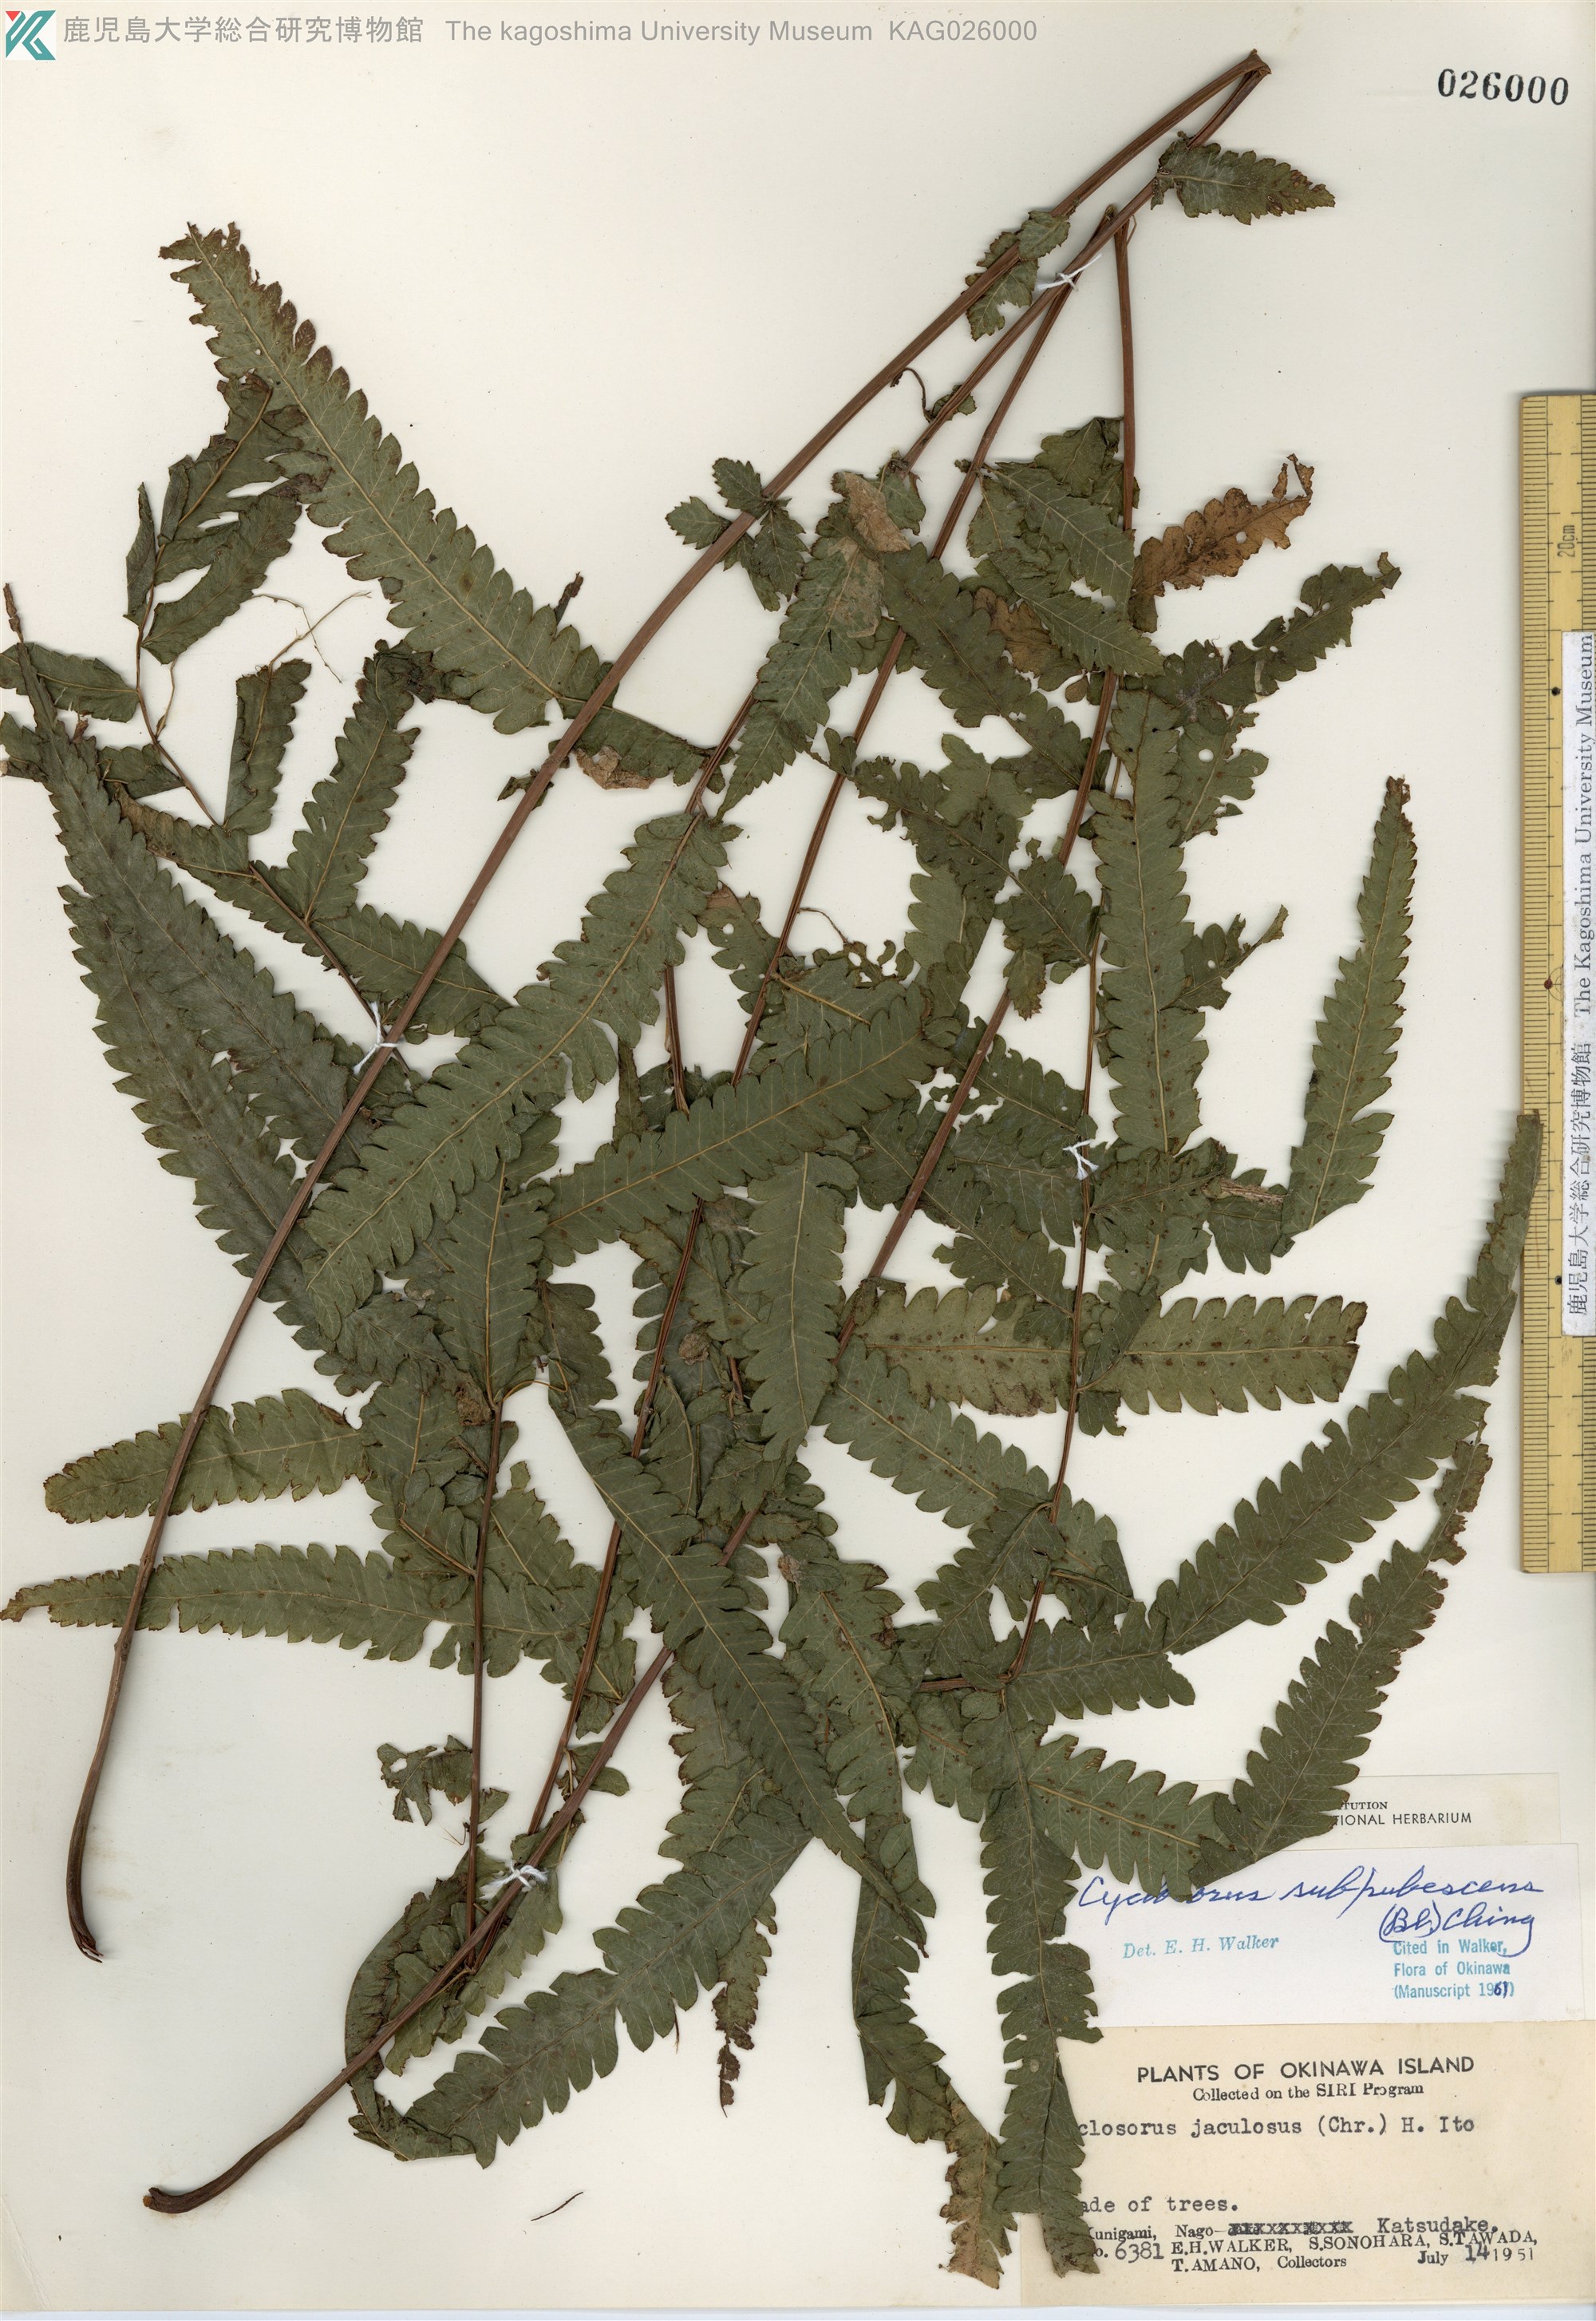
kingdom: Plantae
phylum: Tracheophyta
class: Polypodiopsida
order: Polypodiales
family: Thelypteridaceae
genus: Christella
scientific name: Christella jaculosa
